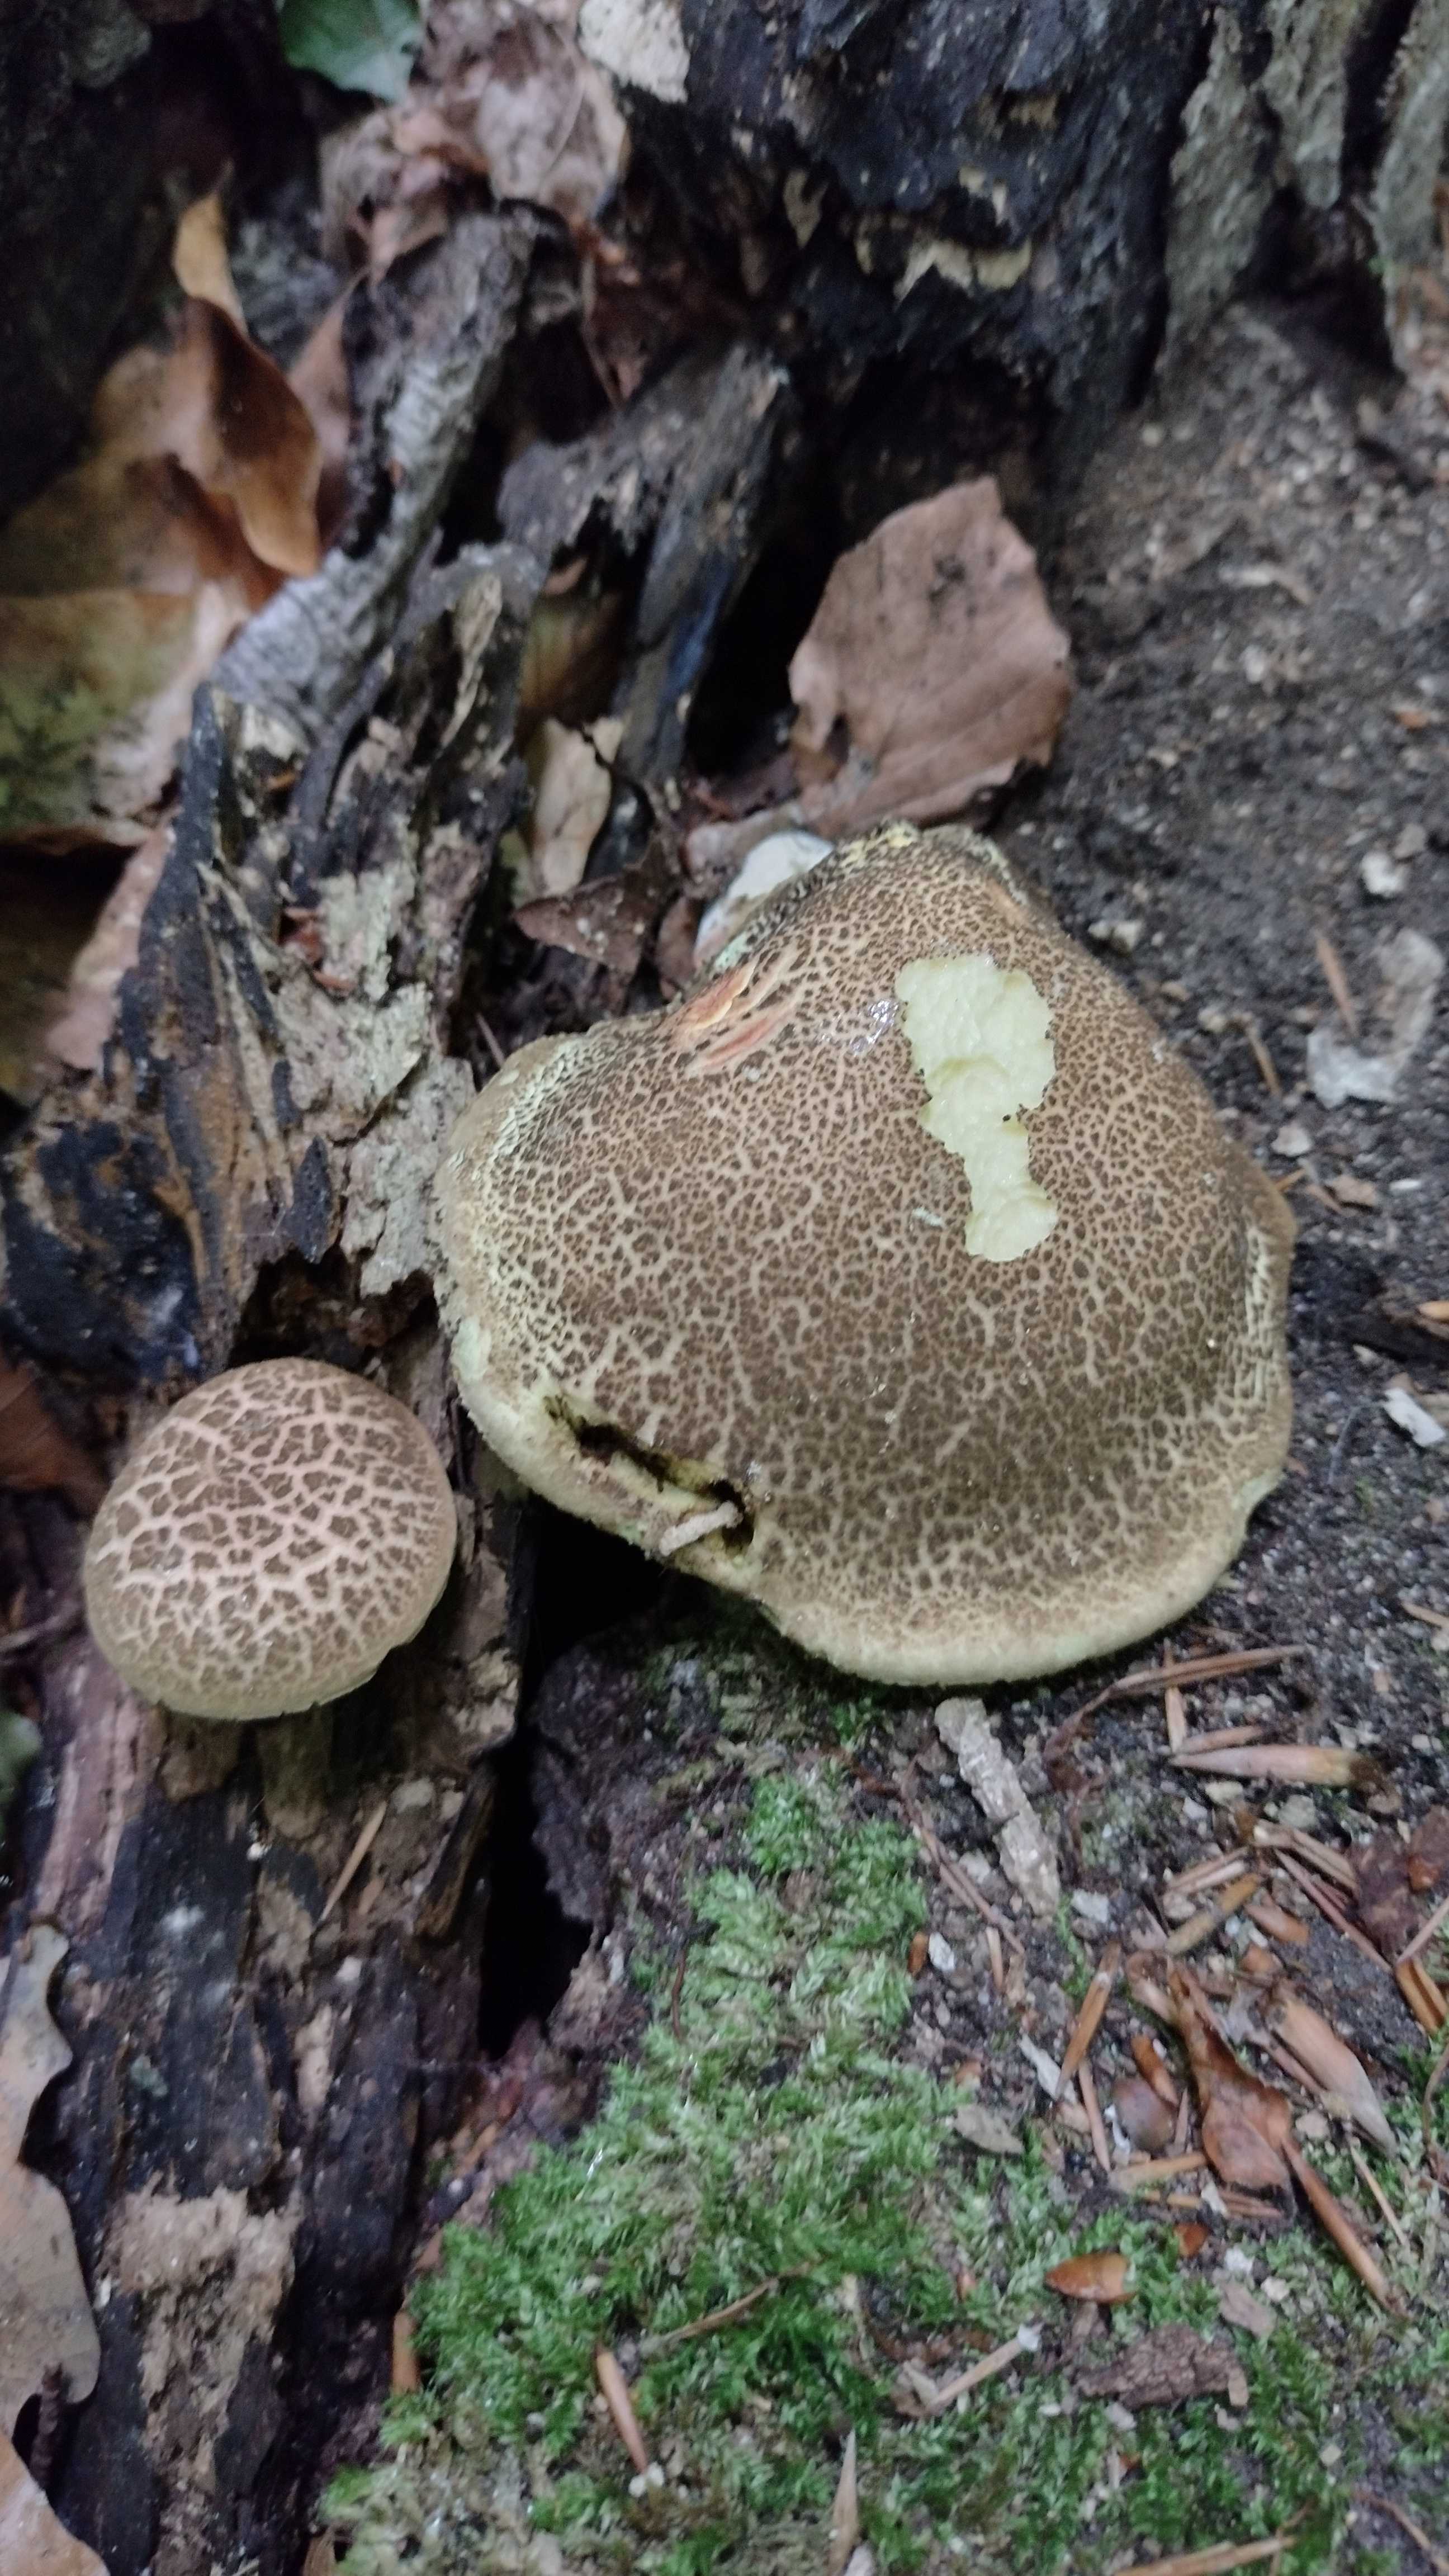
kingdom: Fungi
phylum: Basidiomycota
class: Agaricomycetes
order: Boletales
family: Boletaceae
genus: Xerocomellus
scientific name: Xerocomellus chrysenteron
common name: rødsprukken rørhat
